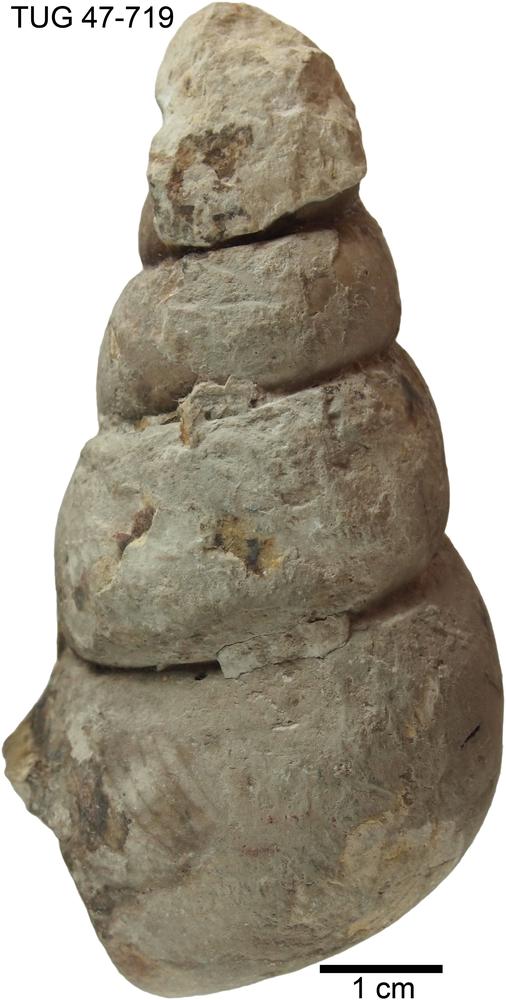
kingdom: Animalia
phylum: Mollusca
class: Gastropoda
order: Pleurotomariida
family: Murchisoniidae
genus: Hormotoma
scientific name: Hormotoma
